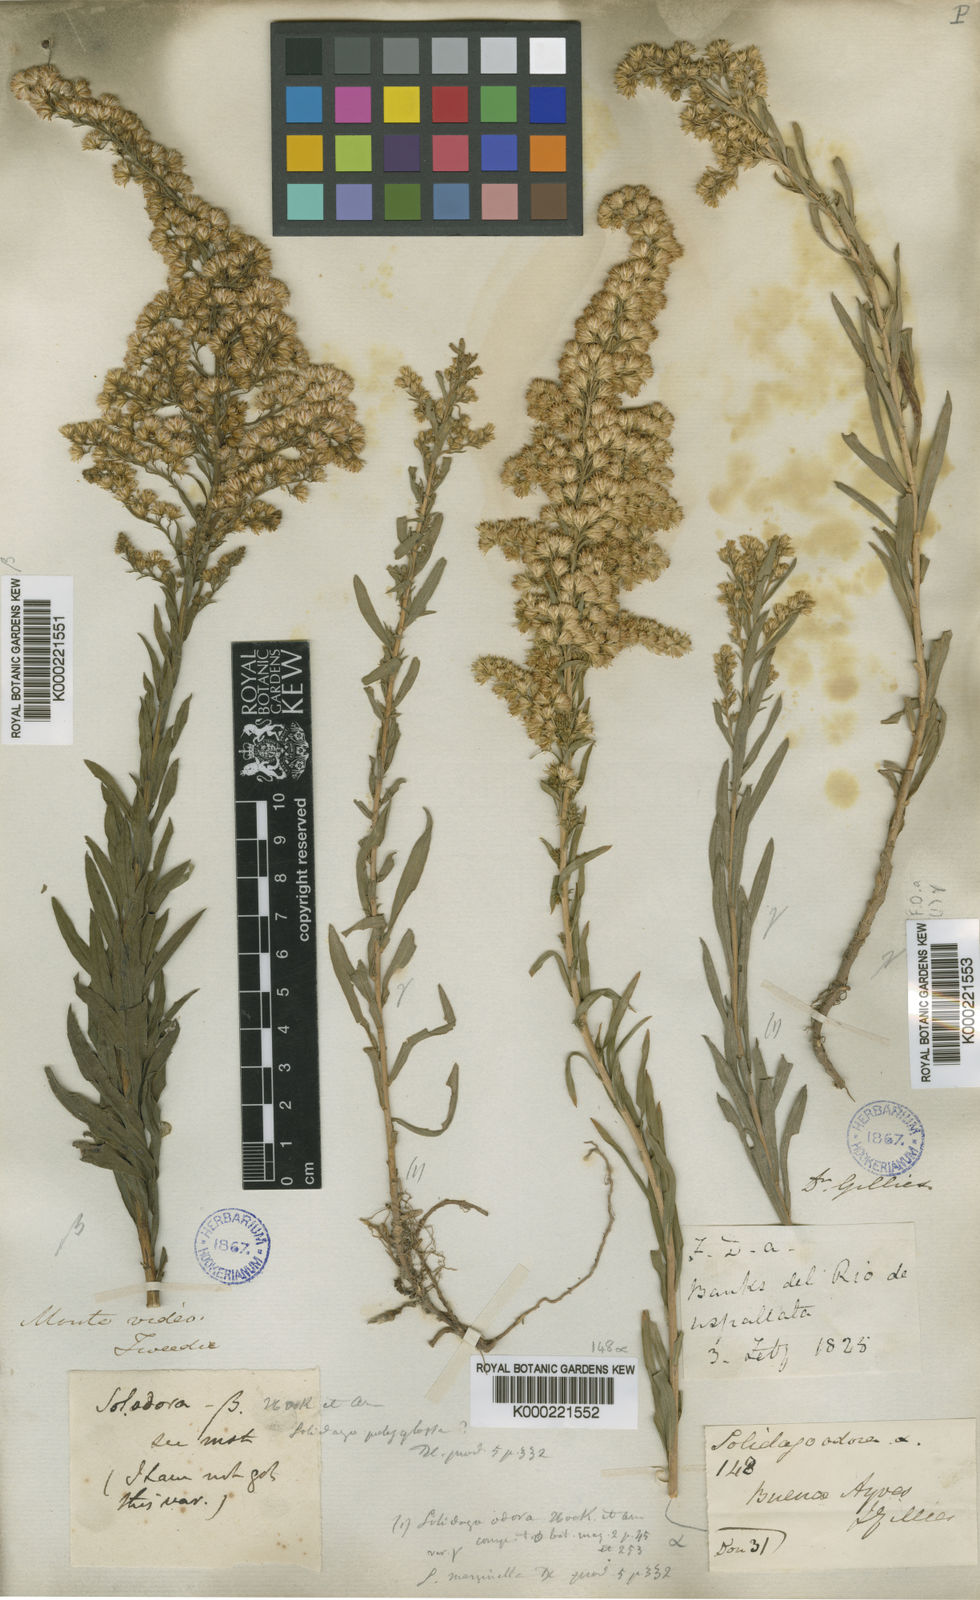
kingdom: Plantae
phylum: Tracheophyta
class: Magnoliopsida
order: Asterales
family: Asteraceae
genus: Solidago
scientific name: Solidago chilensis
